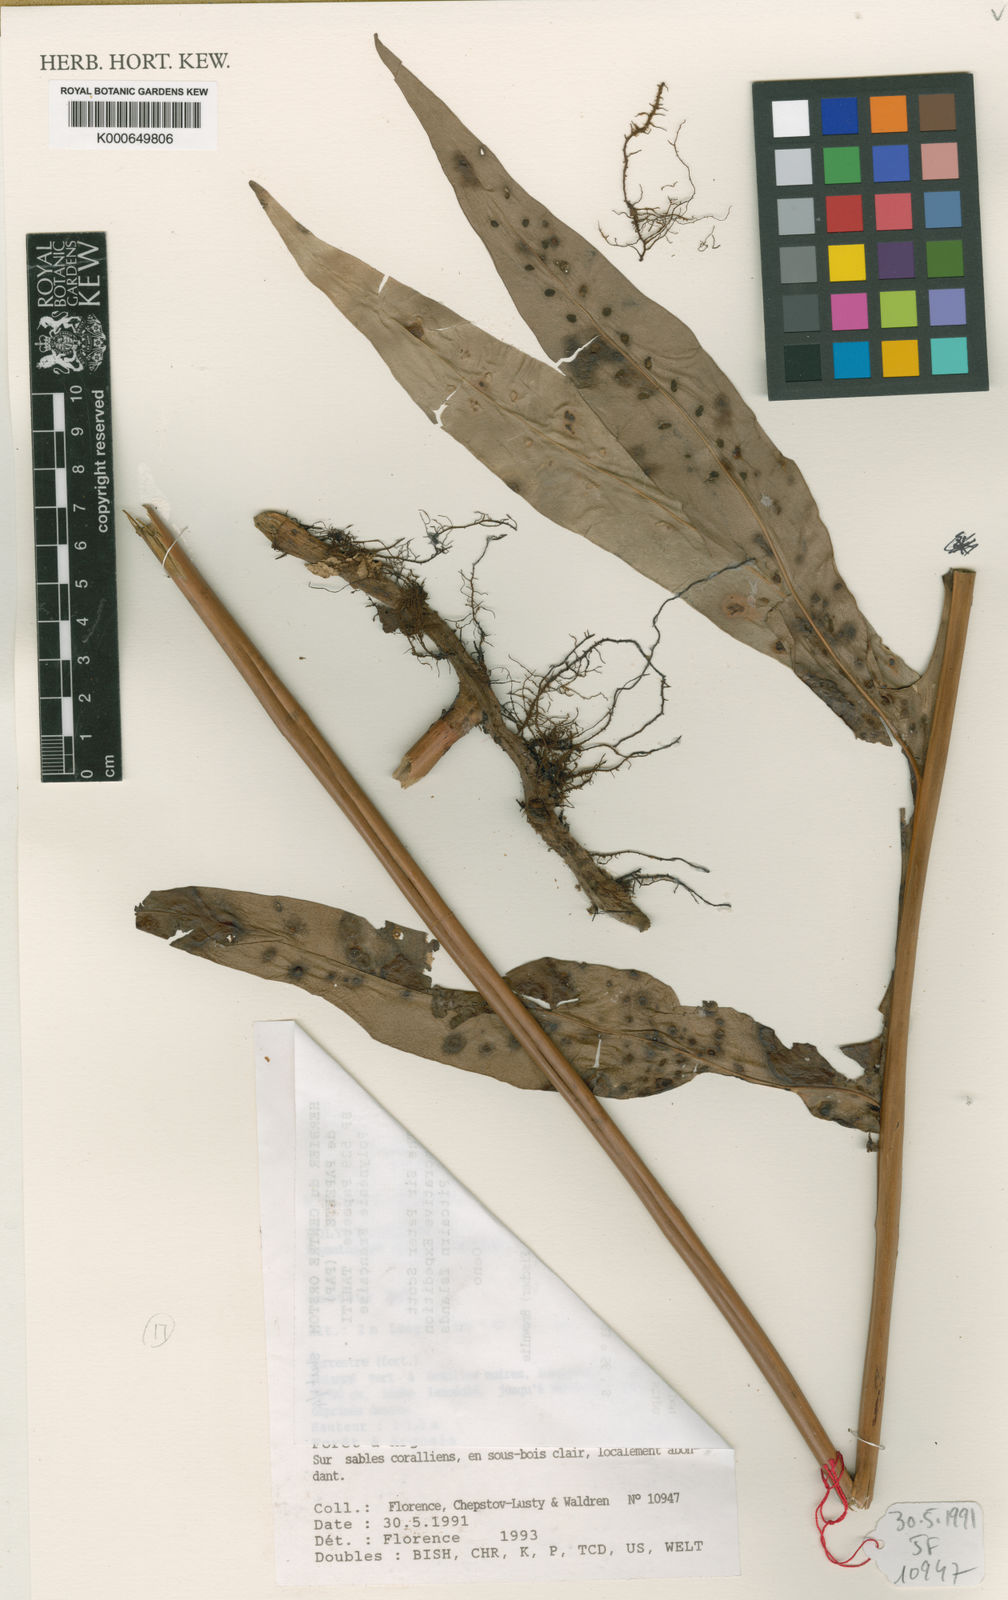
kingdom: Plantae
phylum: Tracheophyta
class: Polypodiopsida
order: Polypodiales
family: Polypodiaceae
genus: Microsorum
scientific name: Microsorum grossum
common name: Musk fern
